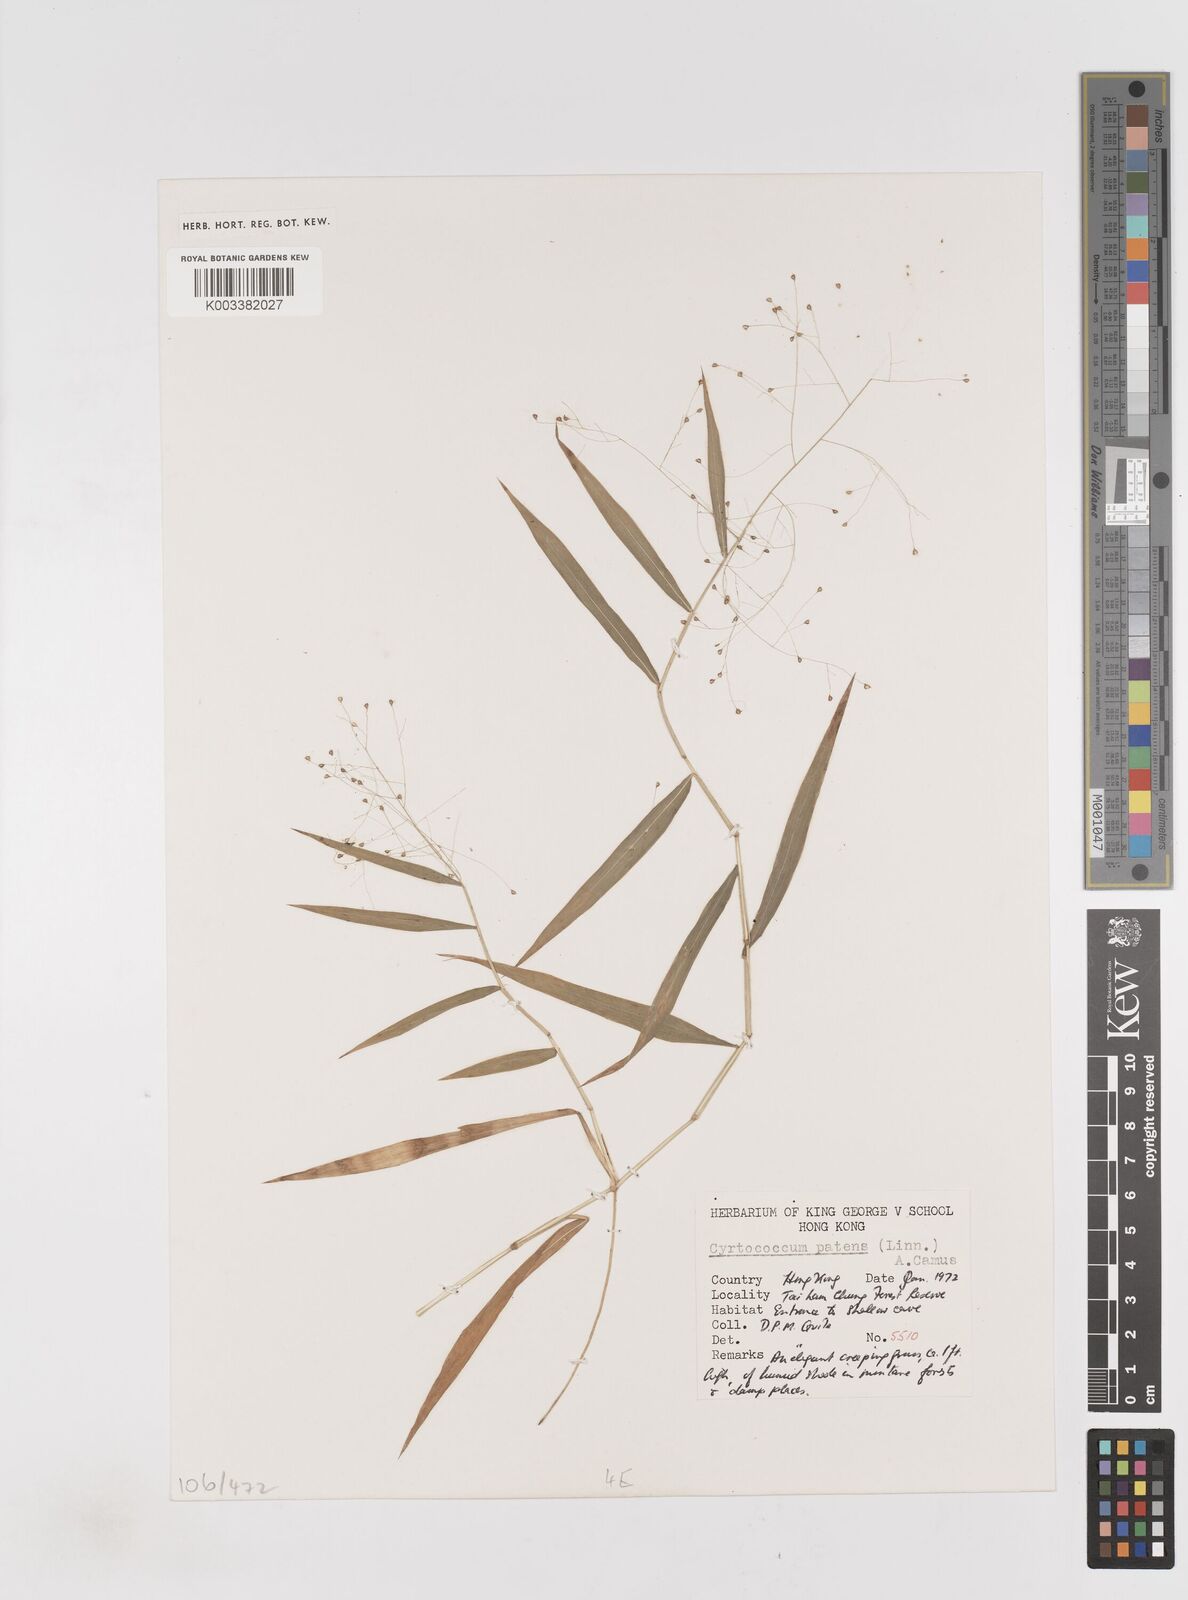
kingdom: Plantae
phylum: Tracheophyta
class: Liliopsida
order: Poales
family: Poaceae
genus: Cyrtococcum
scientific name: Cyrtococcum accrescens
